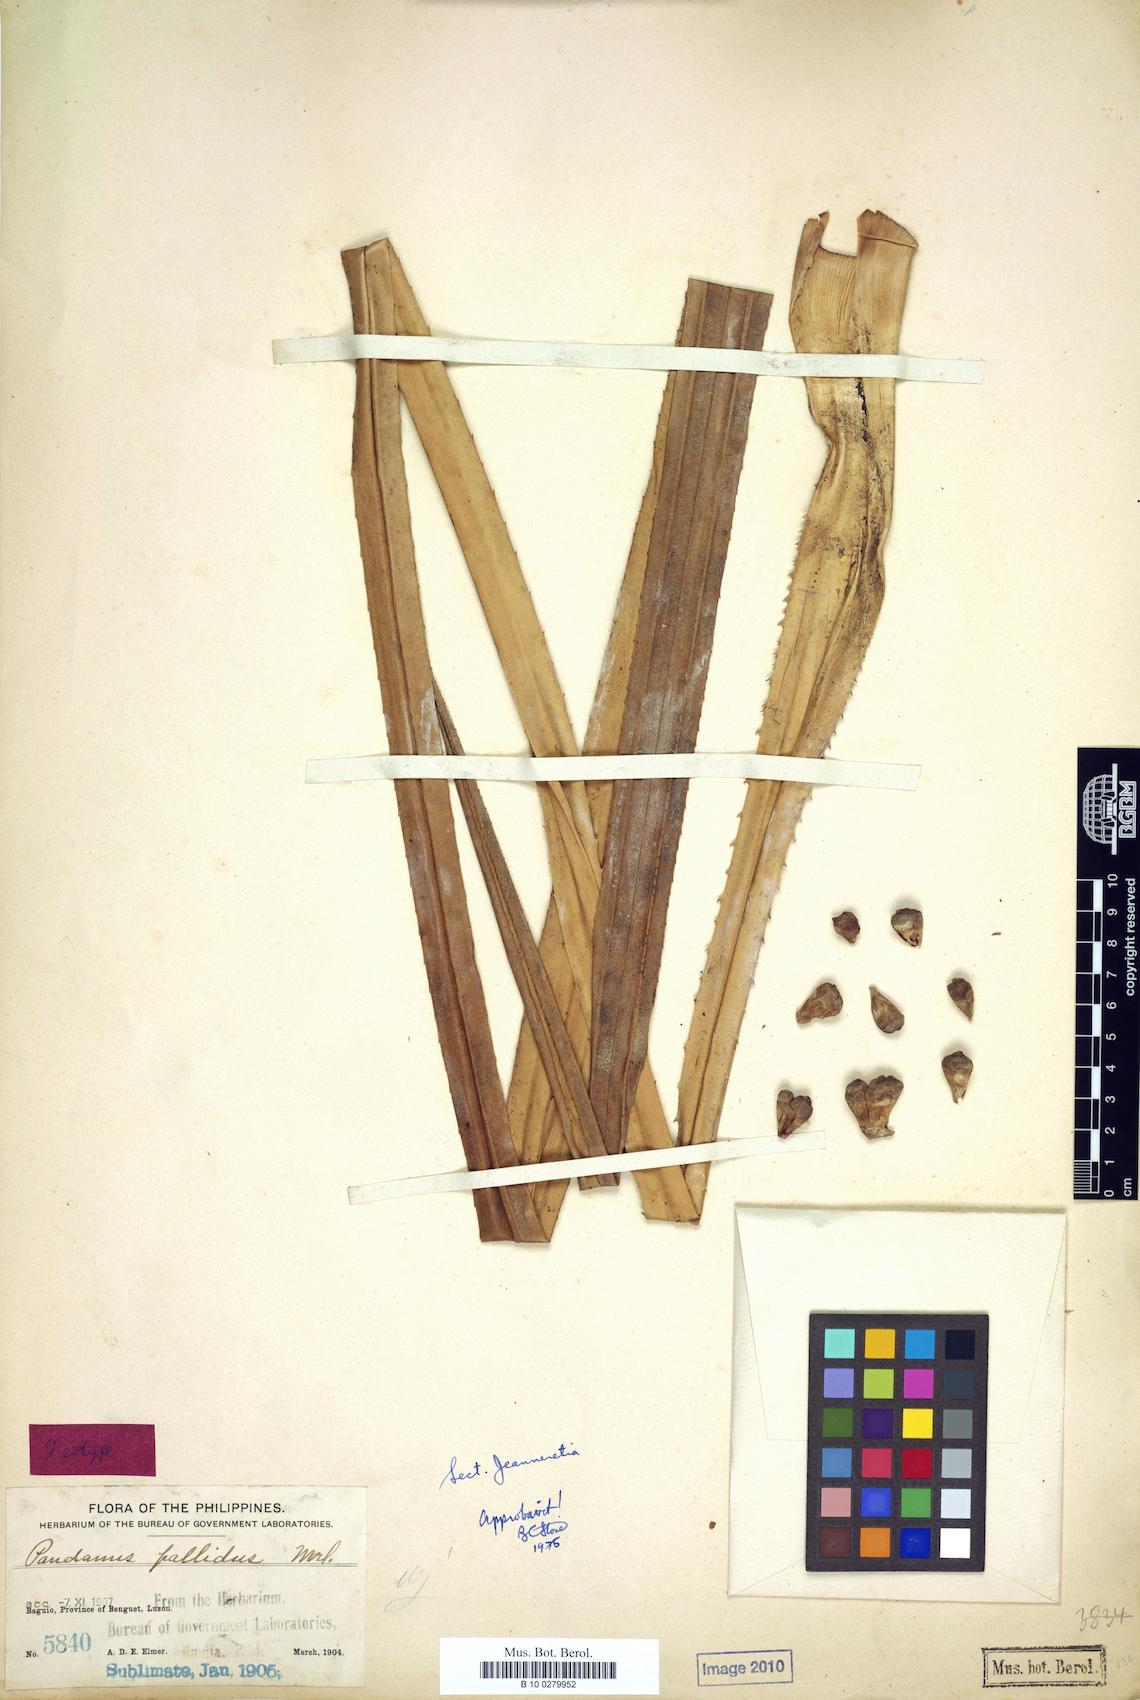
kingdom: Plantae
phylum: Tracheophyta
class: Liliopsida
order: Pandanales
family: Pandanaceae
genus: Pandanus
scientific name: Pandanus pallidus
